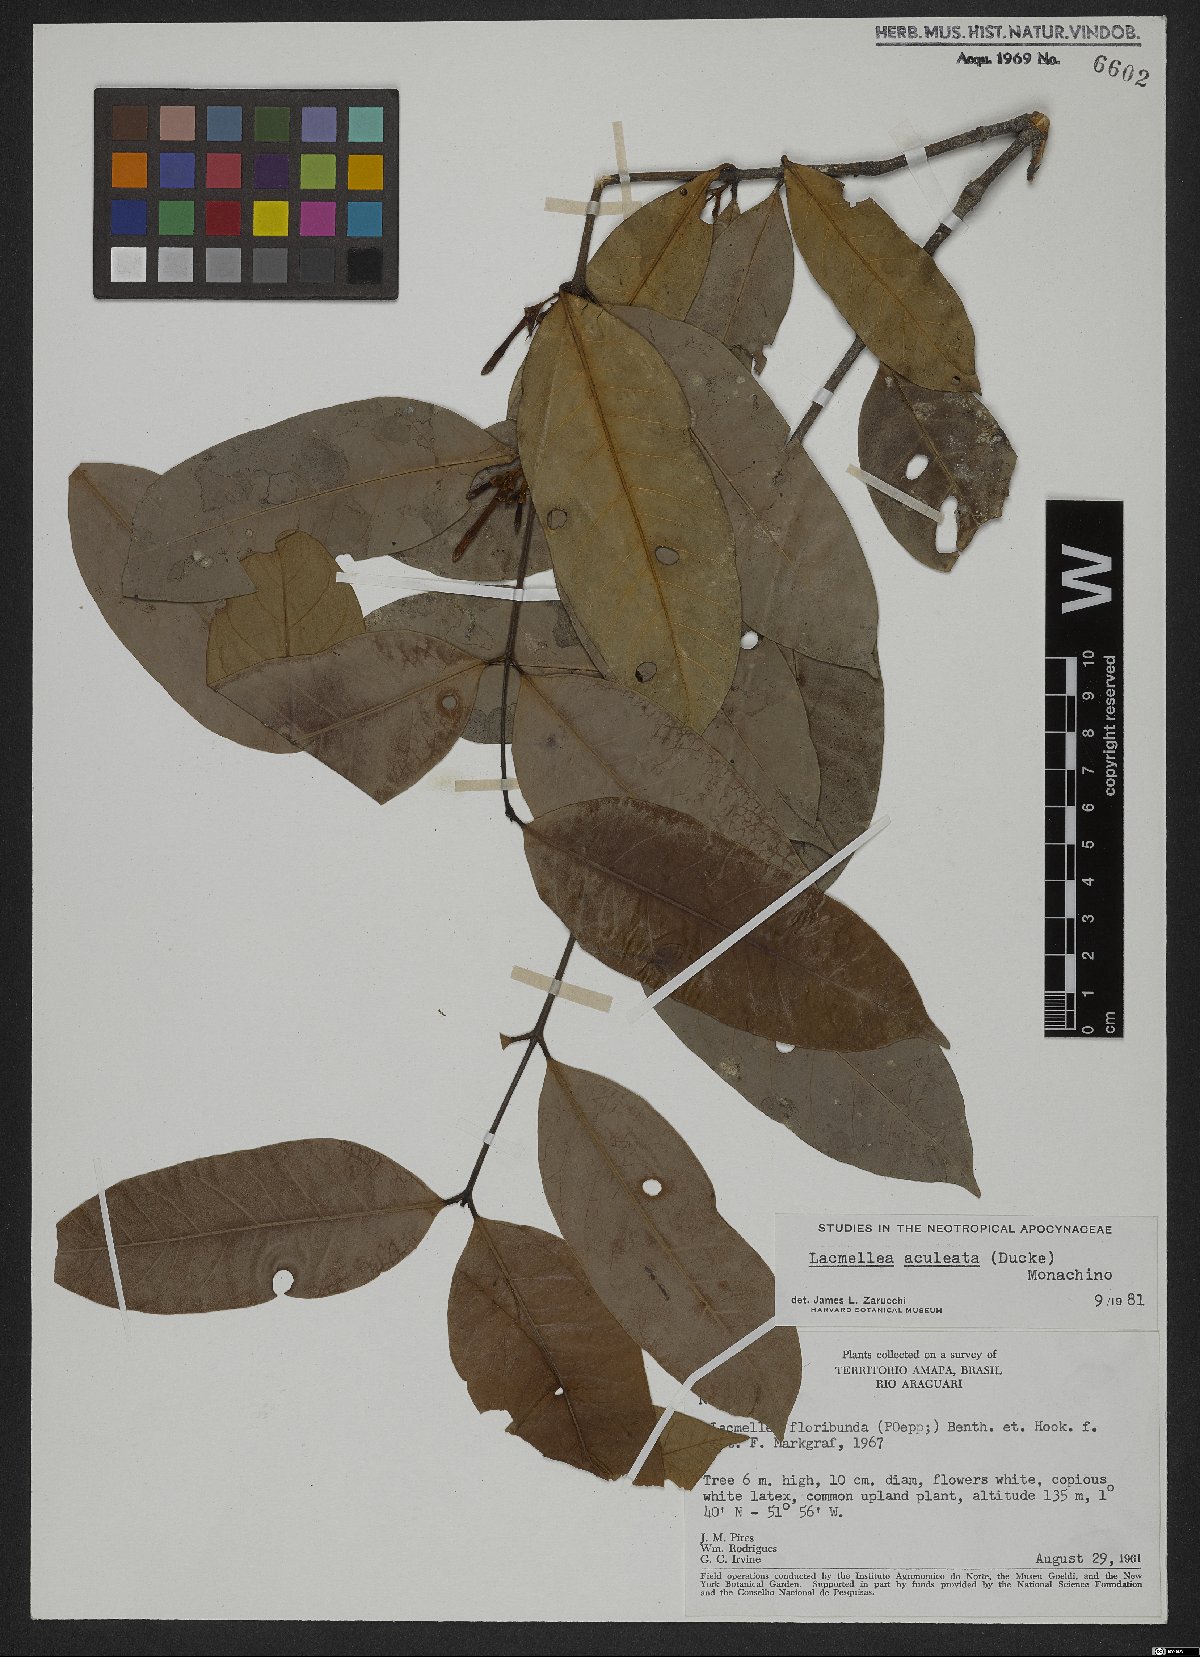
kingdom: Plantae
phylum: Tracheophyta
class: Magnoliopsida
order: Gentianales
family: Apocynaceae
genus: Lacmellea
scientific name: Lacmellea aculeata
